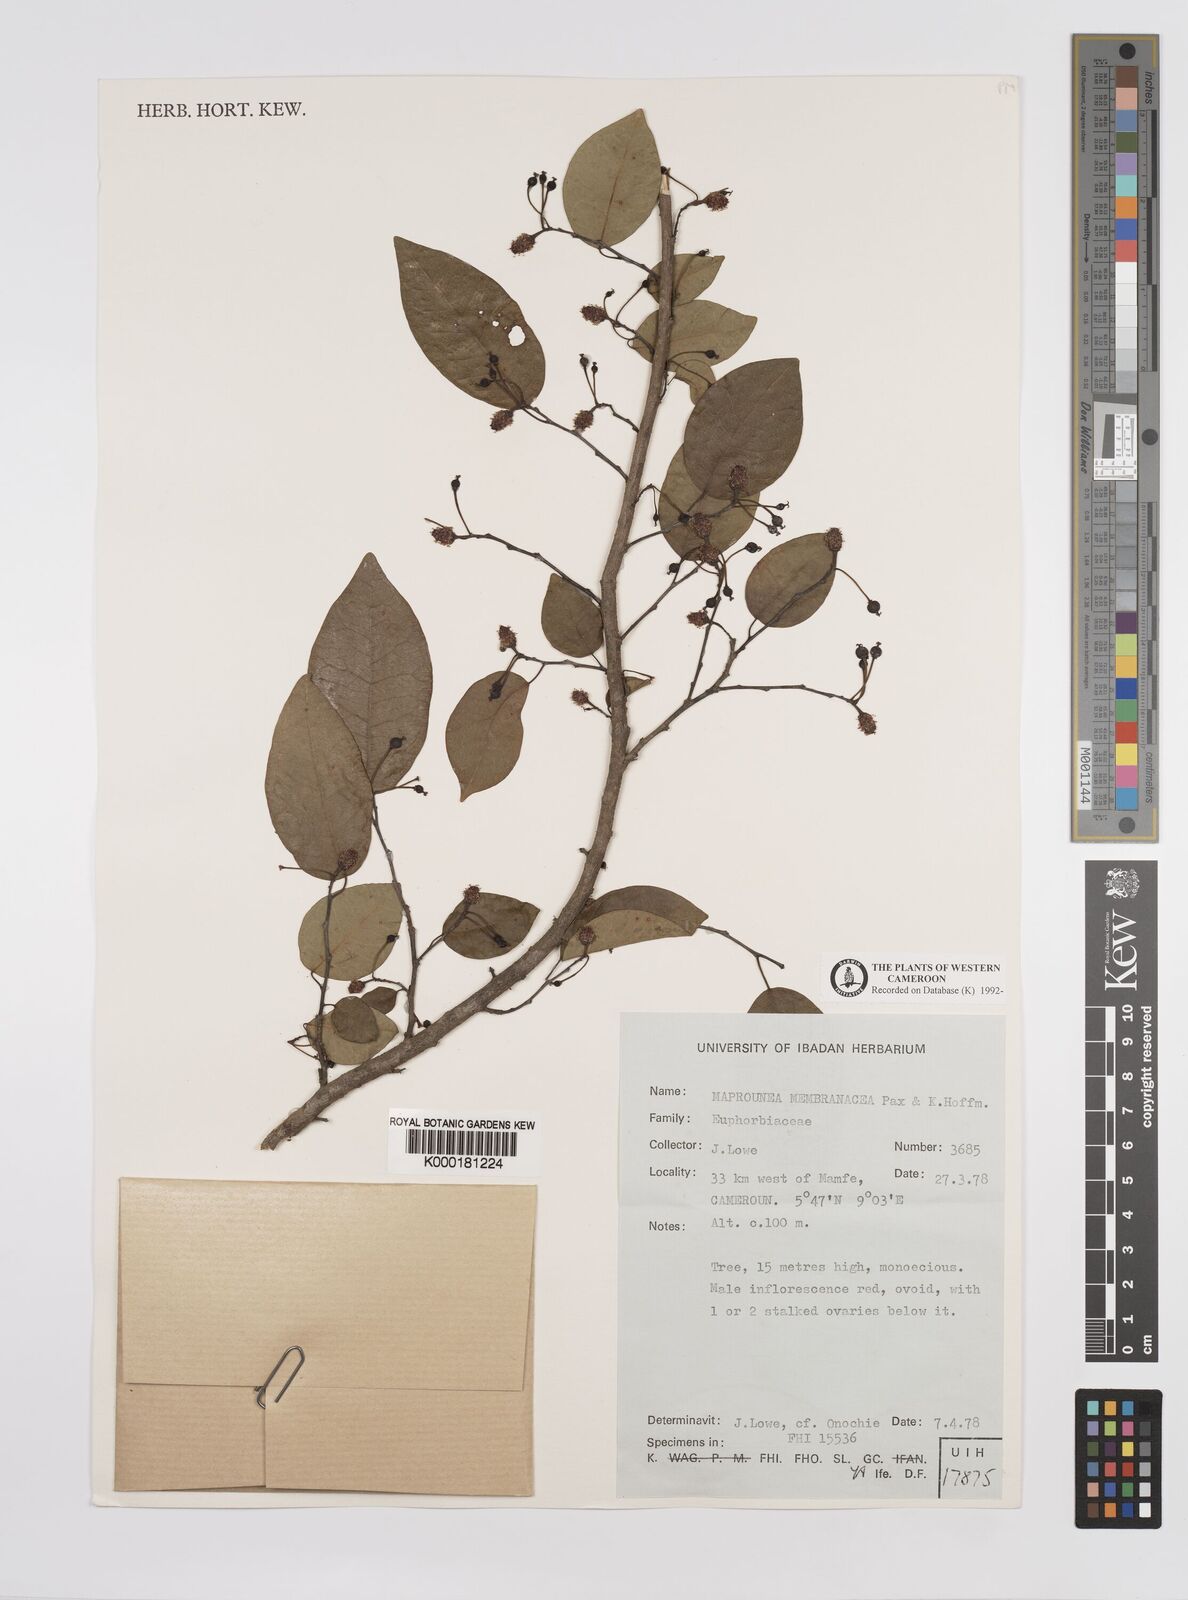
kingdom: Plantae
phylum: Tracheophyta
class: Magnoliopsida
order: Malpighiales
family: Euphorbiaceae
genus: Maprounea
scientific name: Maprounea membranacea
